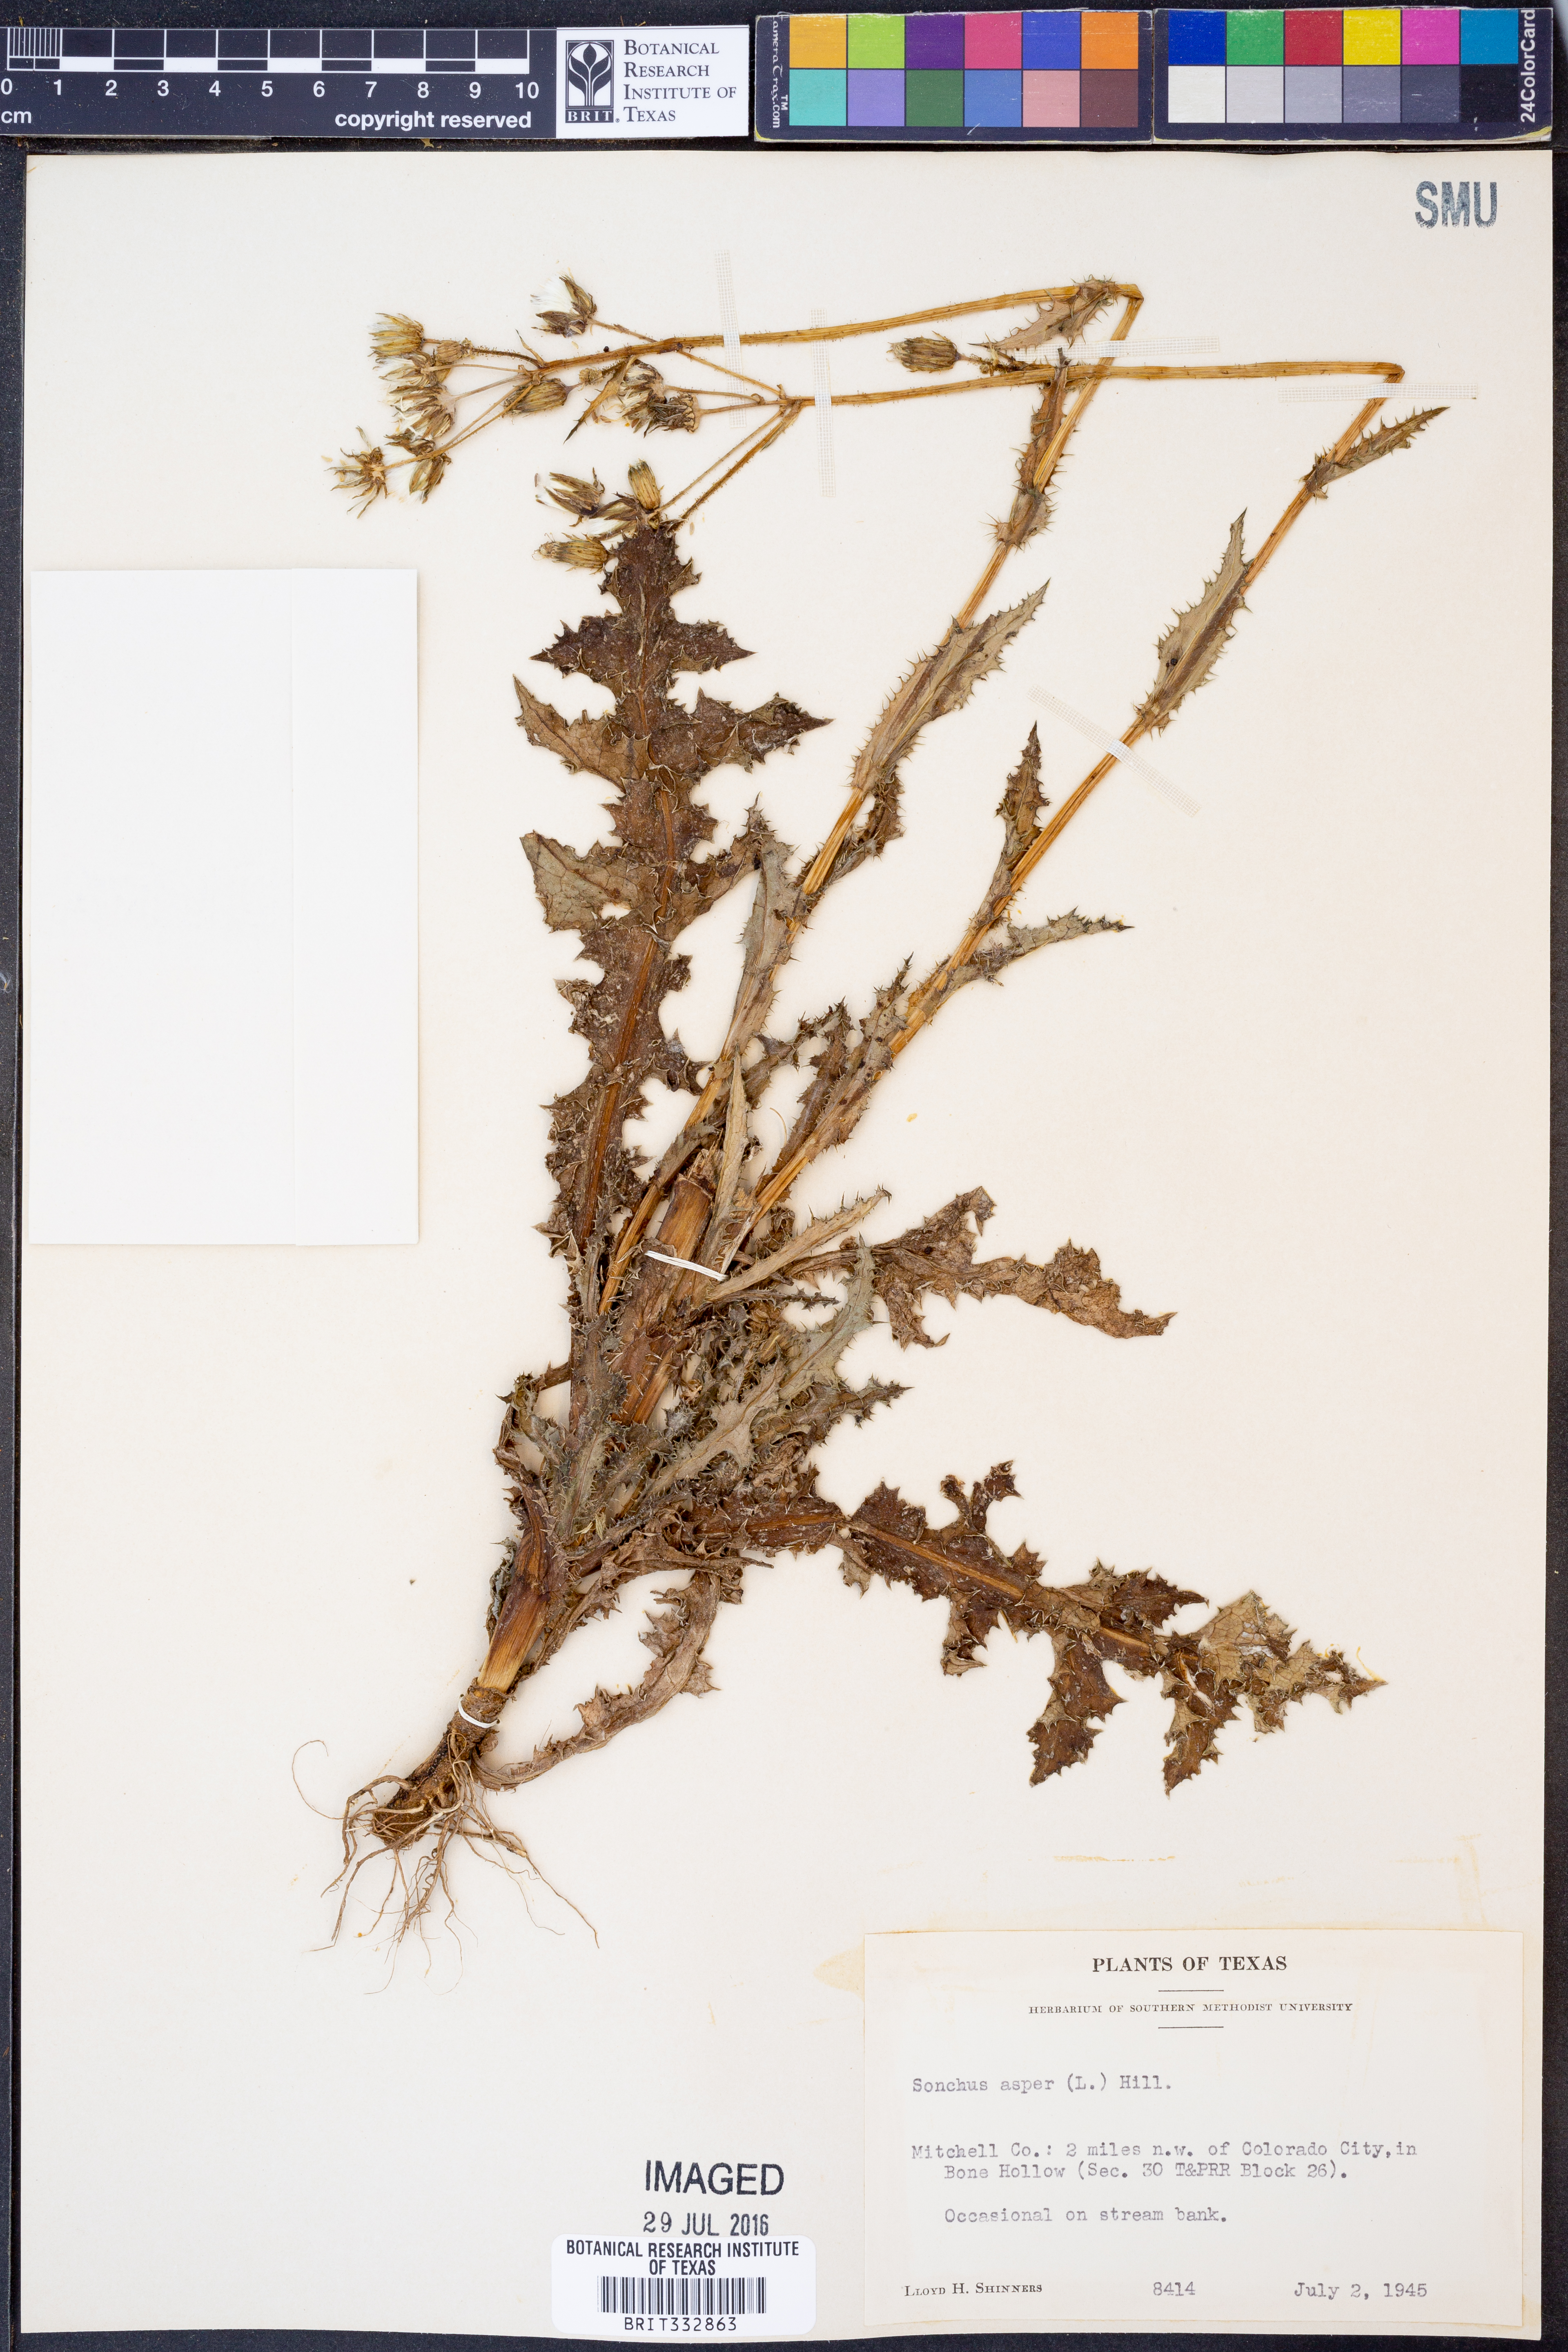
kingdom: Plantae
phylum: Tracheophyta
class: Magnoliopsida
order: Asterales
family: Asteraceae
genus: Sonchus
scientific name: Sonchus asper
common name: Prickly sow-thistle
